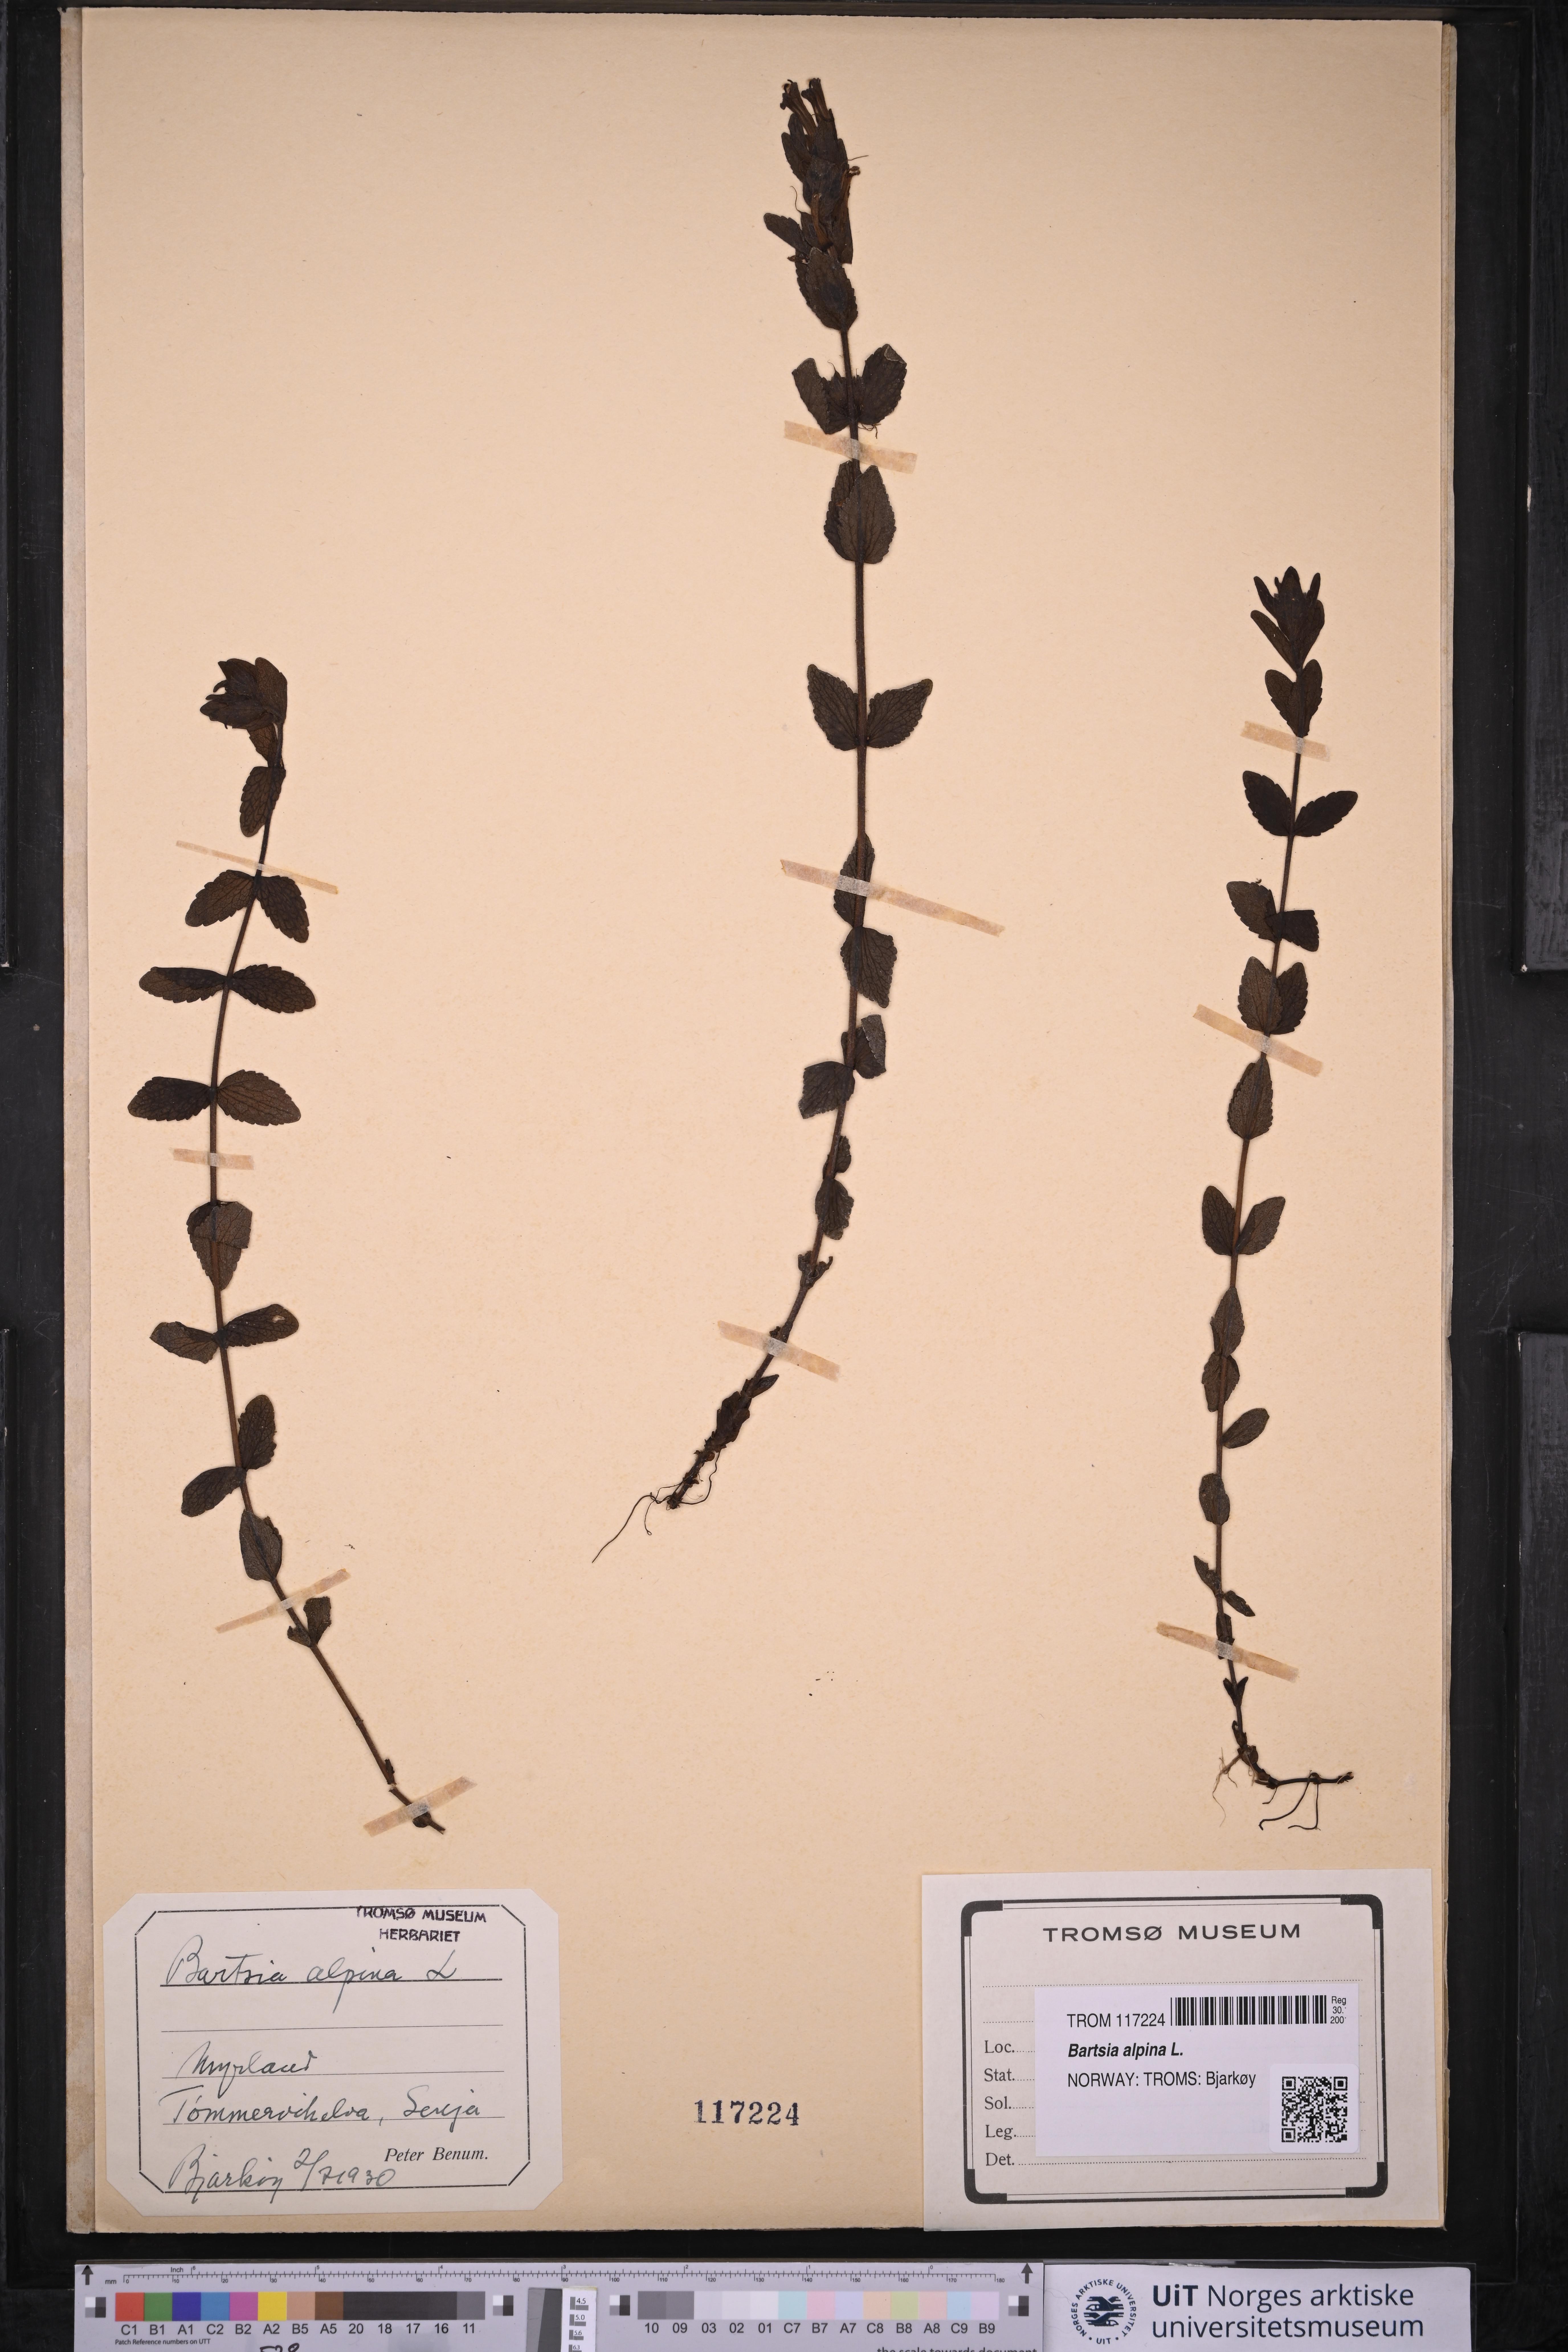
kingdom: Plantae
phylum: Tracheophyta
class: Magnoliopsida
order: Lamiales
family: Orobanchaceae
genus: Bartsia
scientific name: Bartsia alpina
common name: Alpine bartsia
